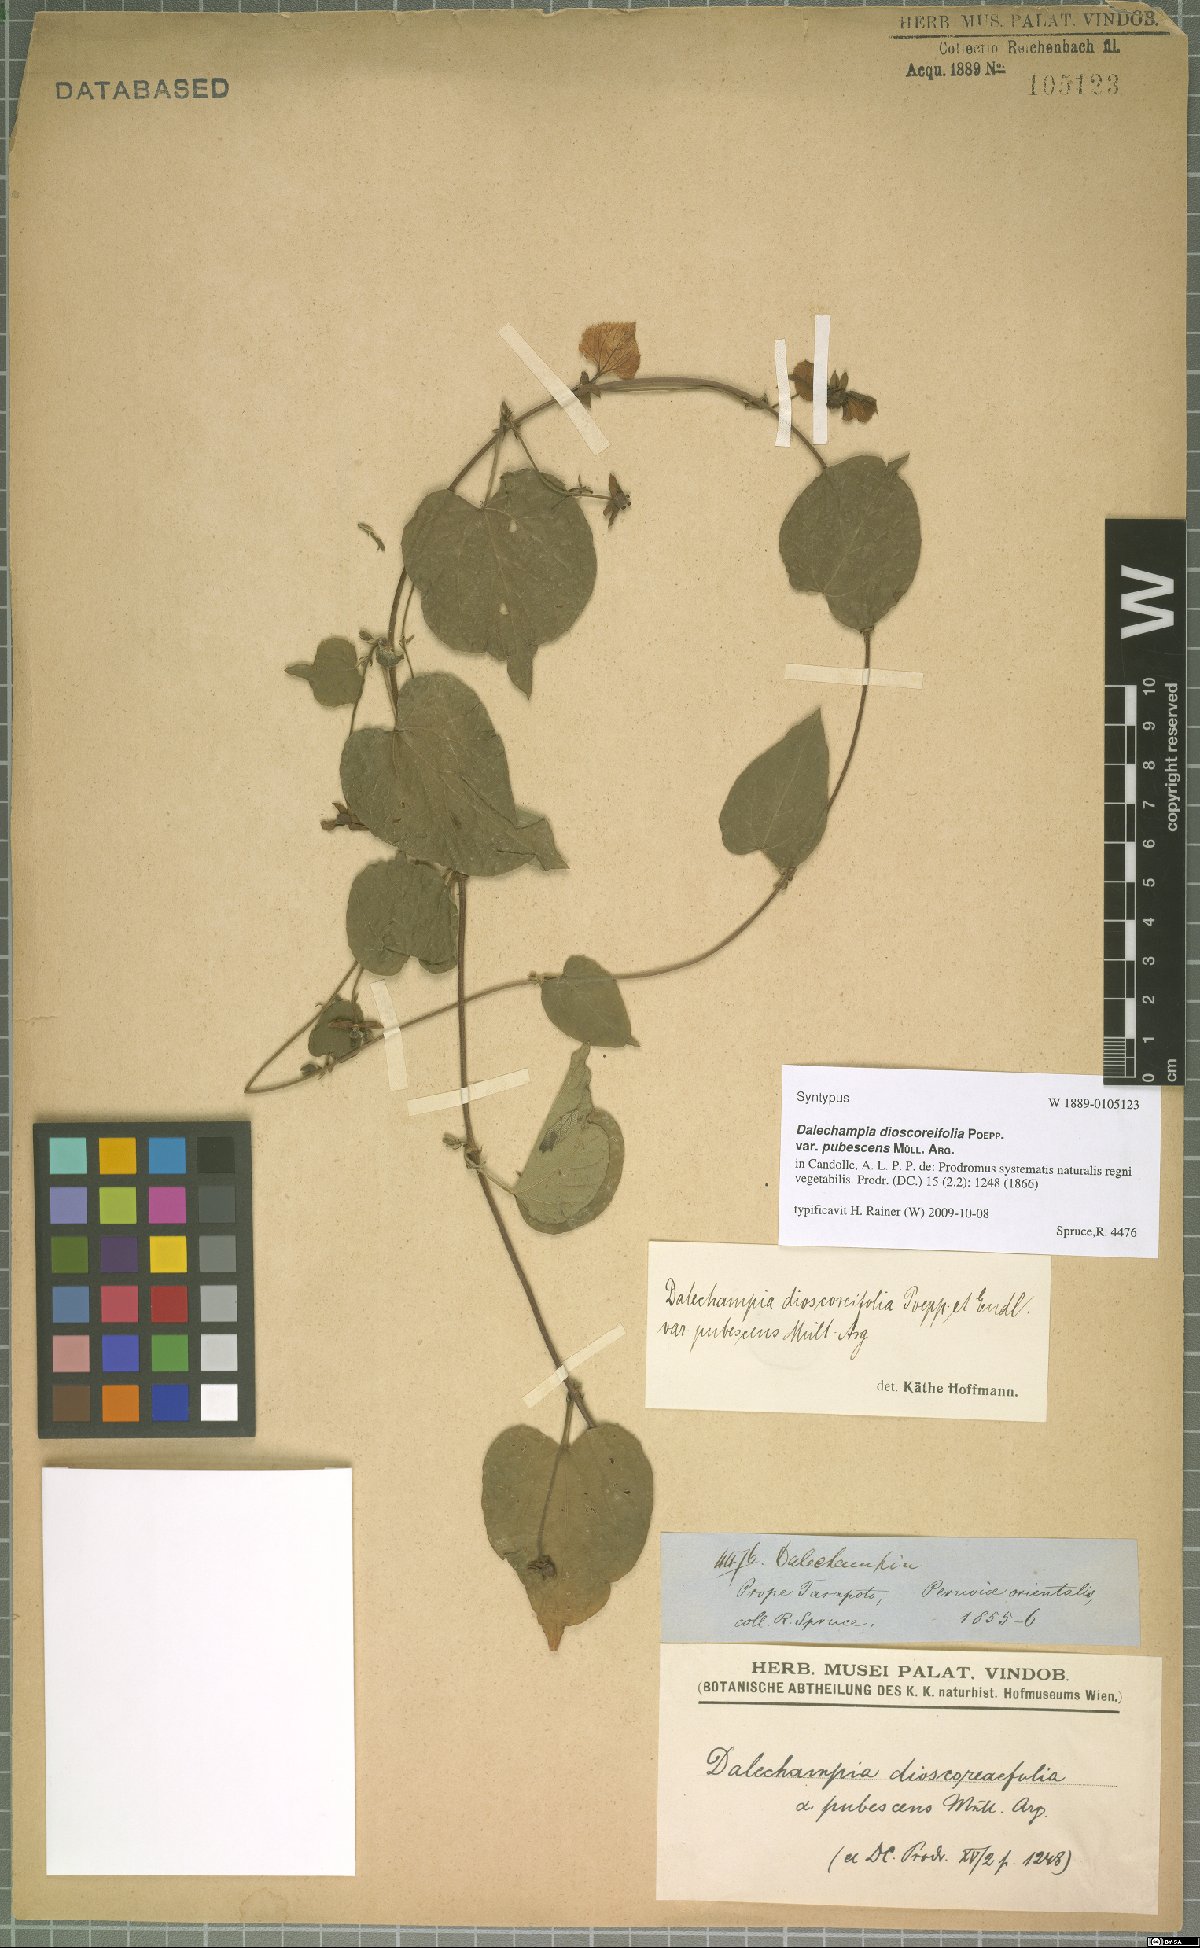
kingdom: Plantae
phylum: Tracheophyta
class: Magnoliopsida
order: Malpighiales
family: Euphorbiaceae
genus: Dalechampia
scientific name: Dalechampia dioscoreifolia
